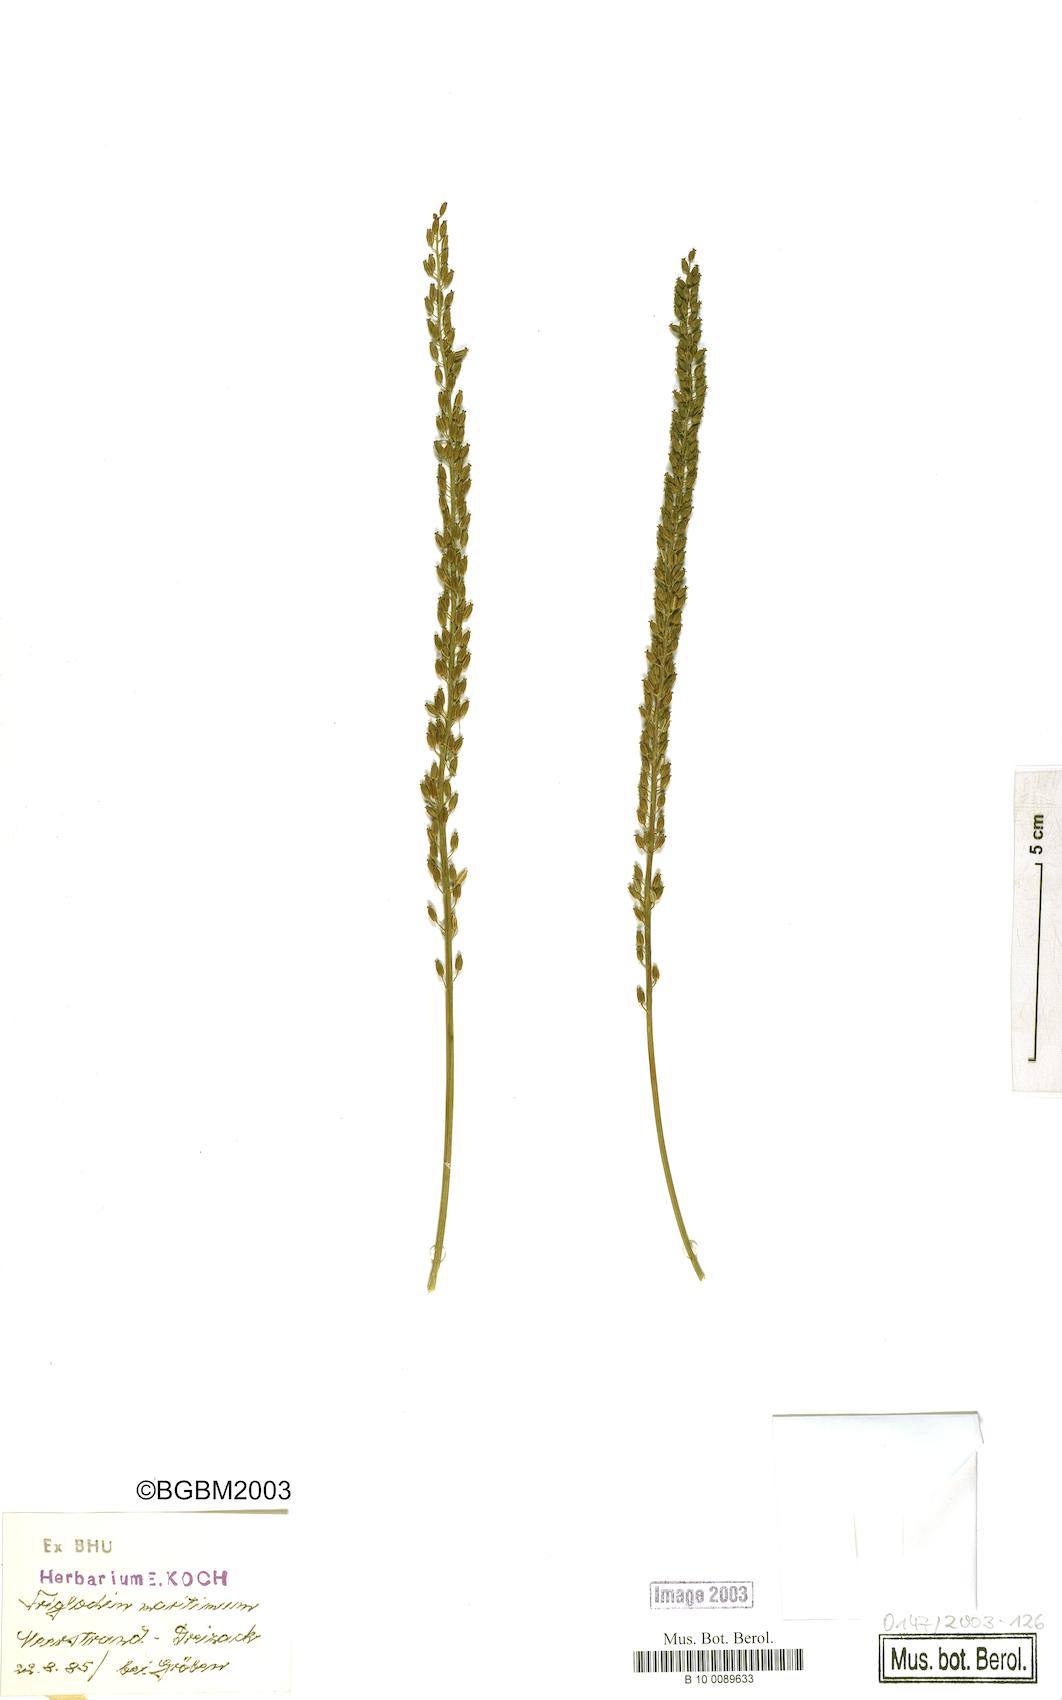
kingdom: Plantae
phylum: Tracheophyta
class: Liliopsida
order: Alismatales
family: Juncaginaceae
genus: Triglochin
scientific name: Triglochin maritima
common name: Sea arrowgrass
